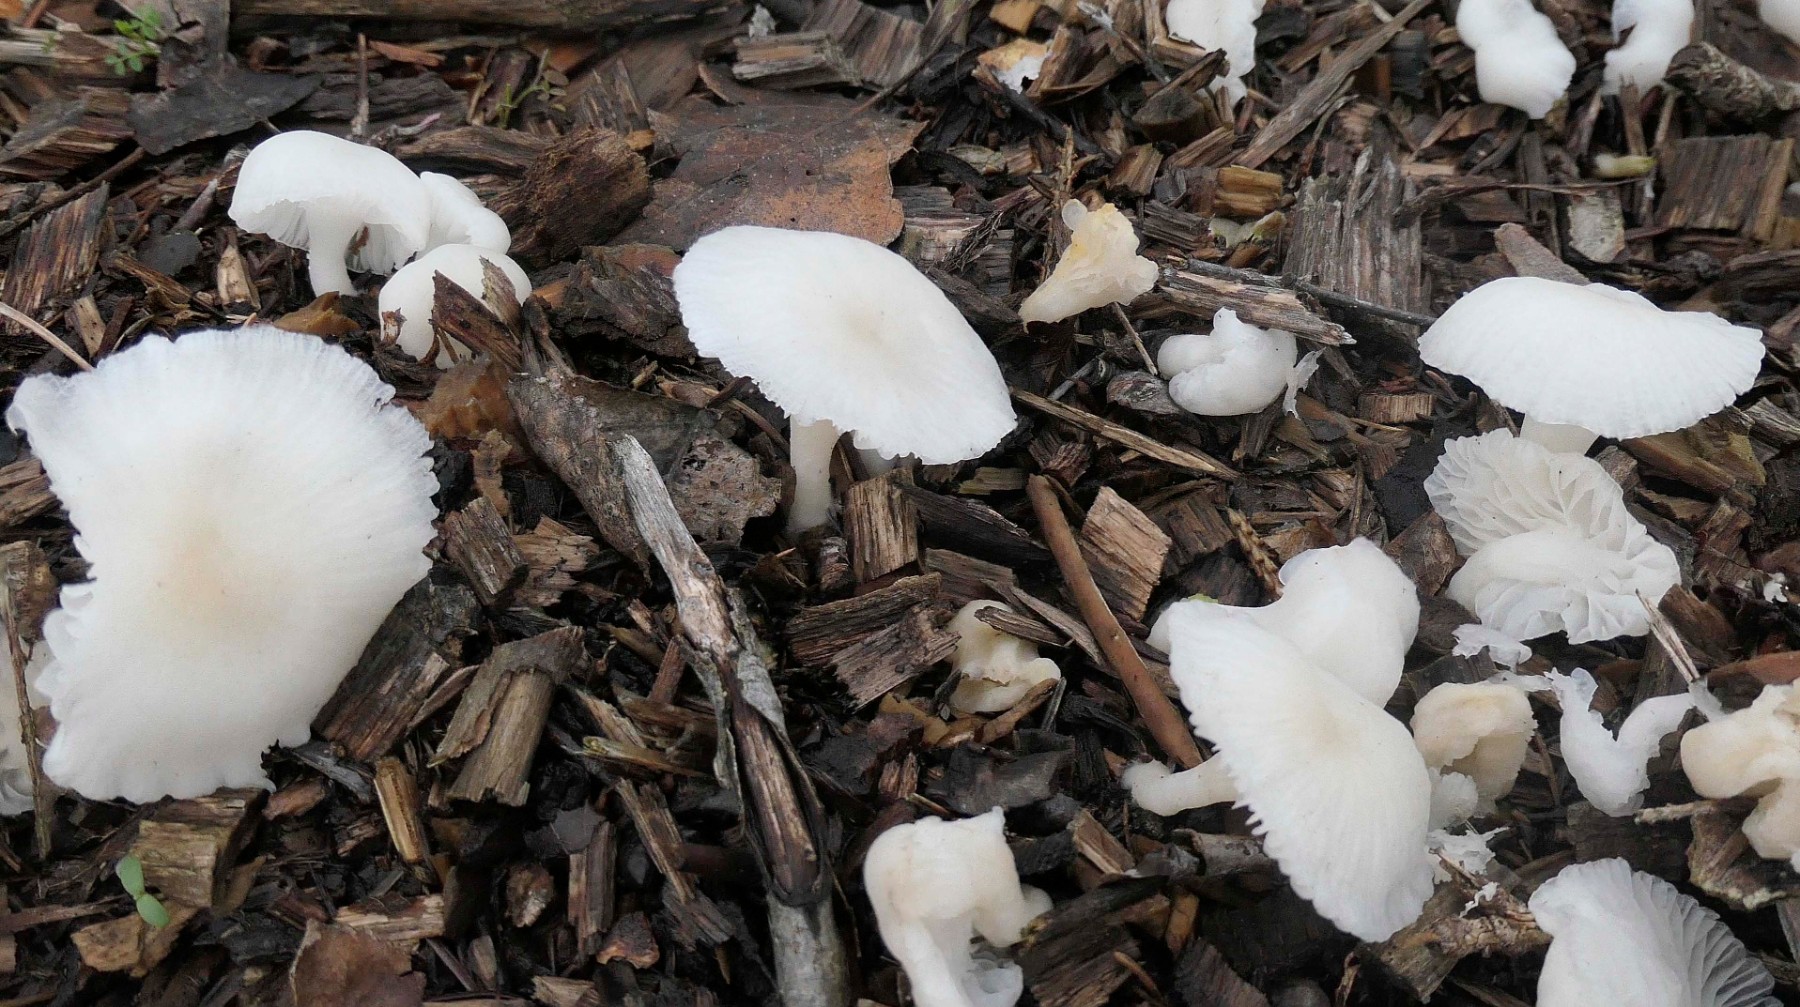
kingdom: Fungi
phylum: Basidiomycota
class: Agaricomycetes
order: Agaricales
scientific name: Agaricales
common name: champignonordenen
